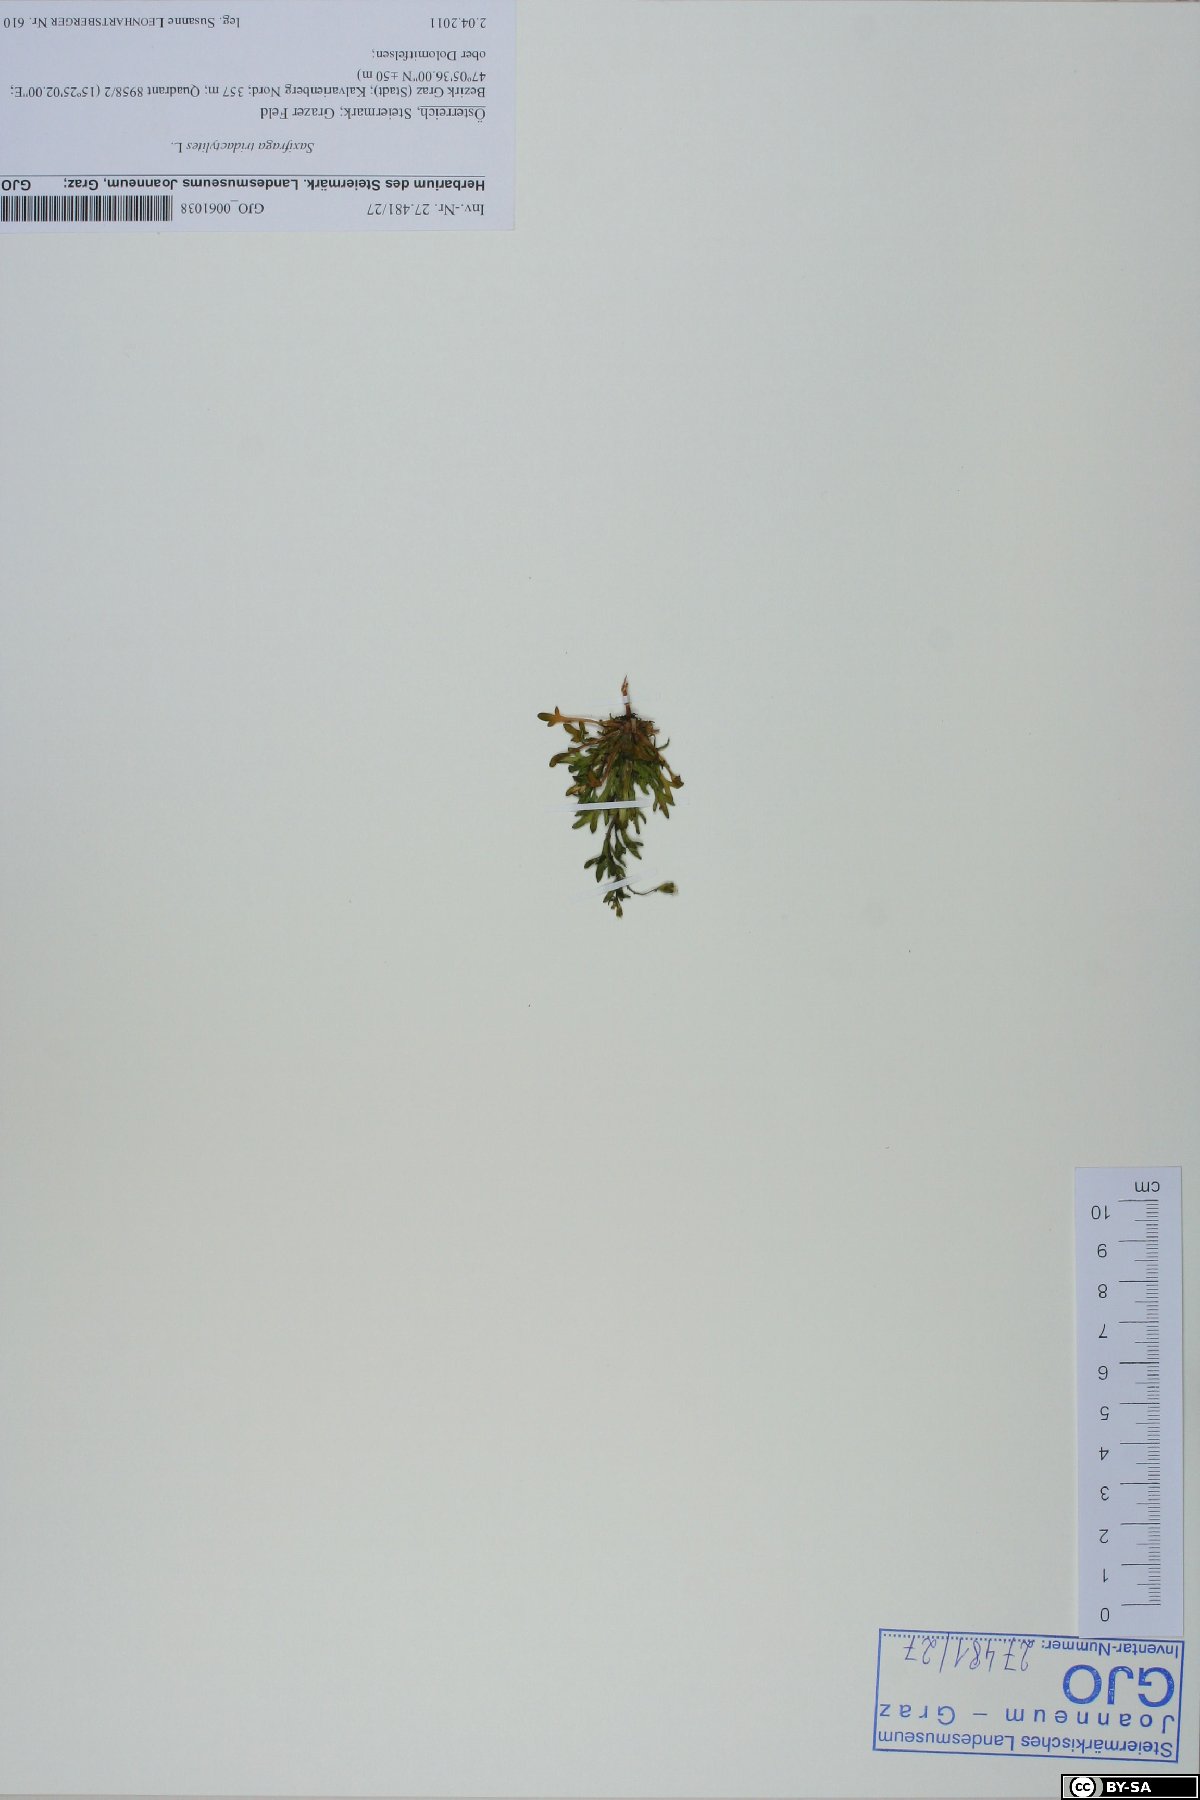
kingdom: Plantae
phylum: Tracheophyta
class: Magnoliopsida
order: Saxifragales
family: Saxifragaceae
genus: Saxifraga
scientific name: Saxifraga tridactylites
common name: Rue-leaved saxifrage
